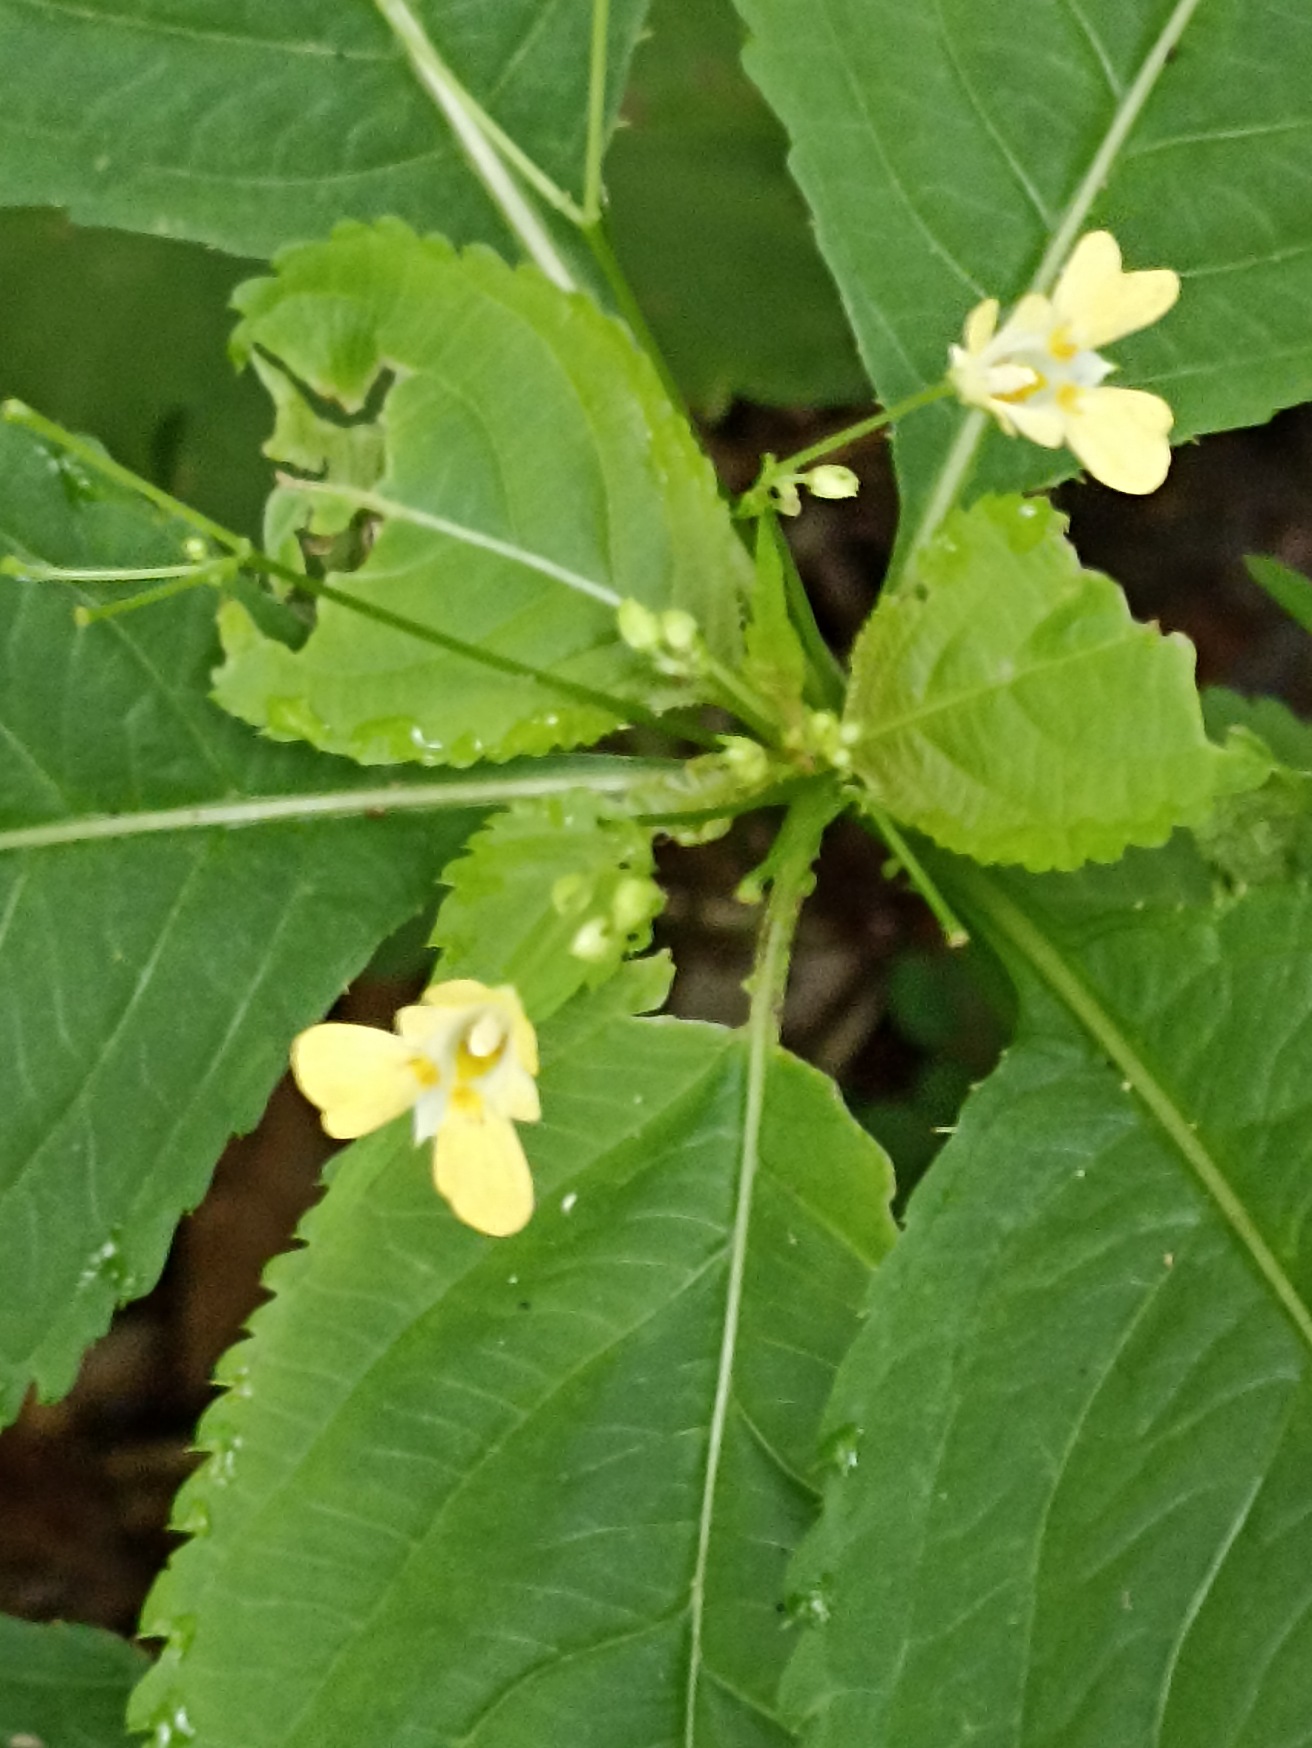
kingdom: Plantae
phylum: Tracheophyta
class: Magnoliopsida
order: Ericales
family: Balsaminaceae
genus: Impatiens
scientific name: Impatiens parviflora
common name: Småblomstret balsamin
